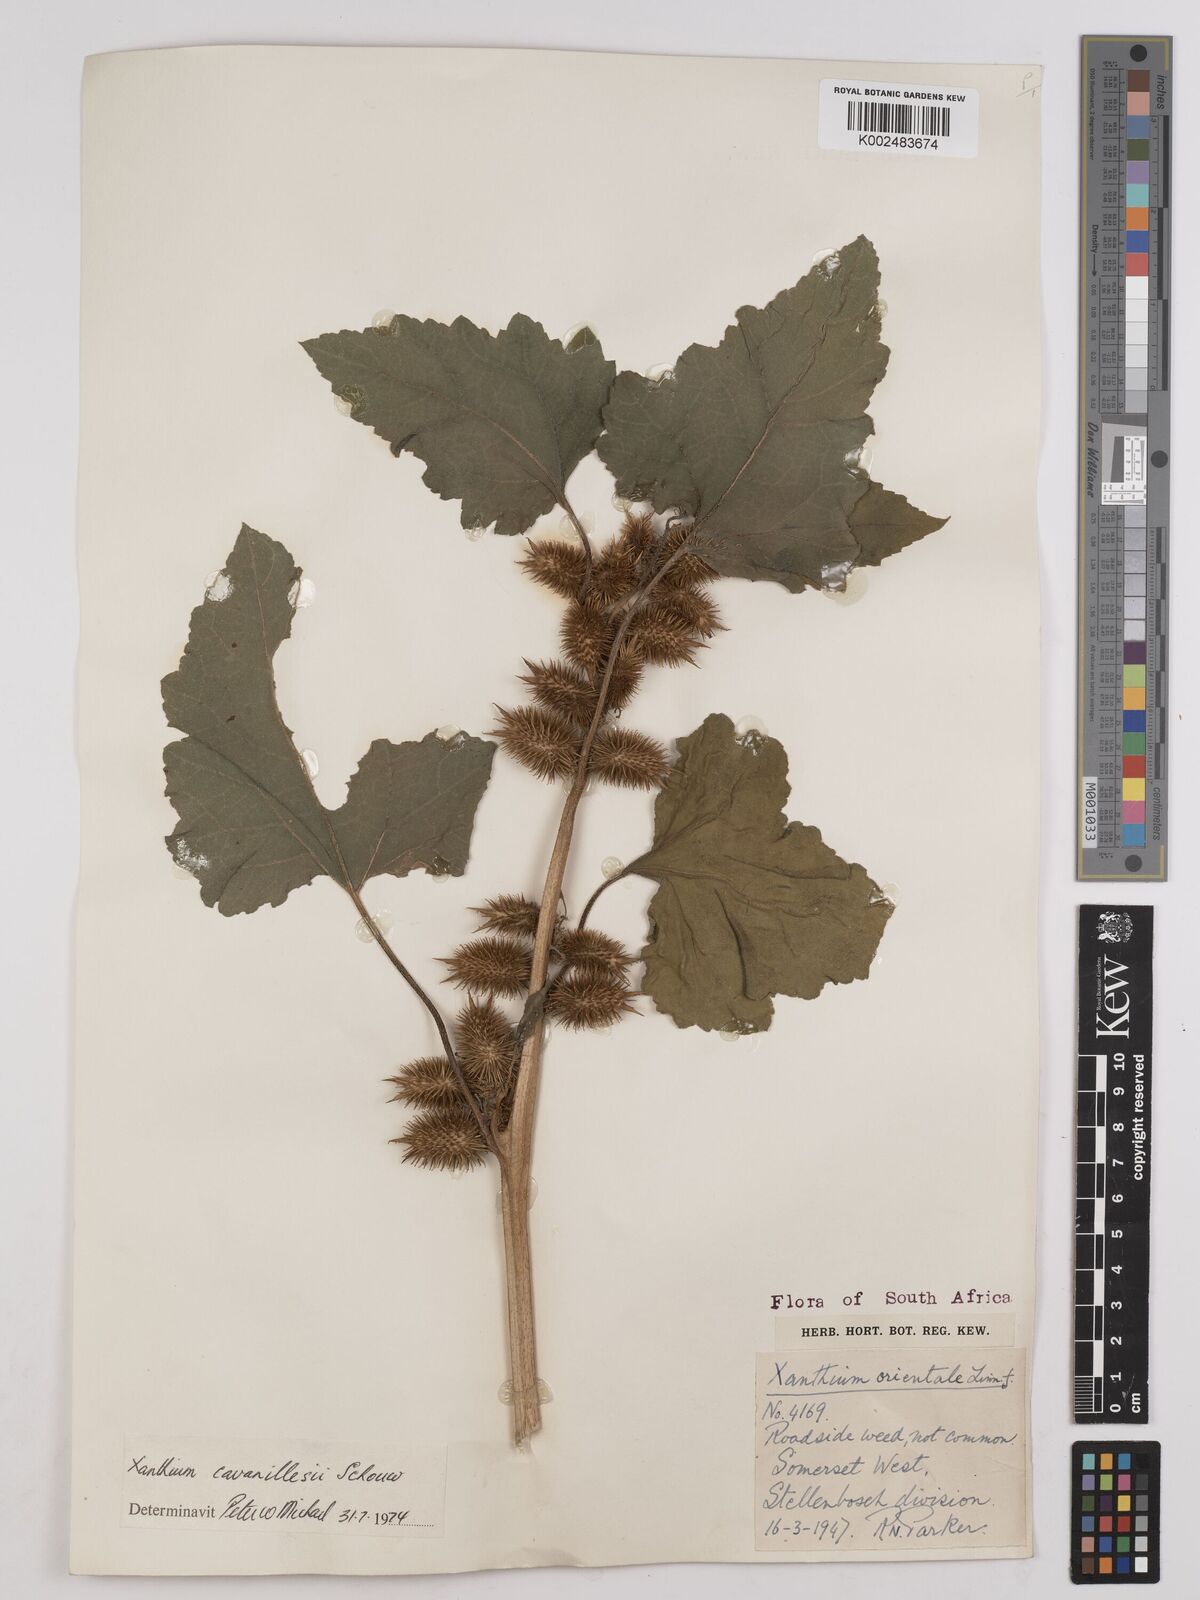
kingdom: Plantae
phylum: Tracheophyta
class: Magnoliopsida
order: Asterales
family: Asteraceae
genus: Xanthium
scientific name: Xanthium orientale
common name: Californian burr
